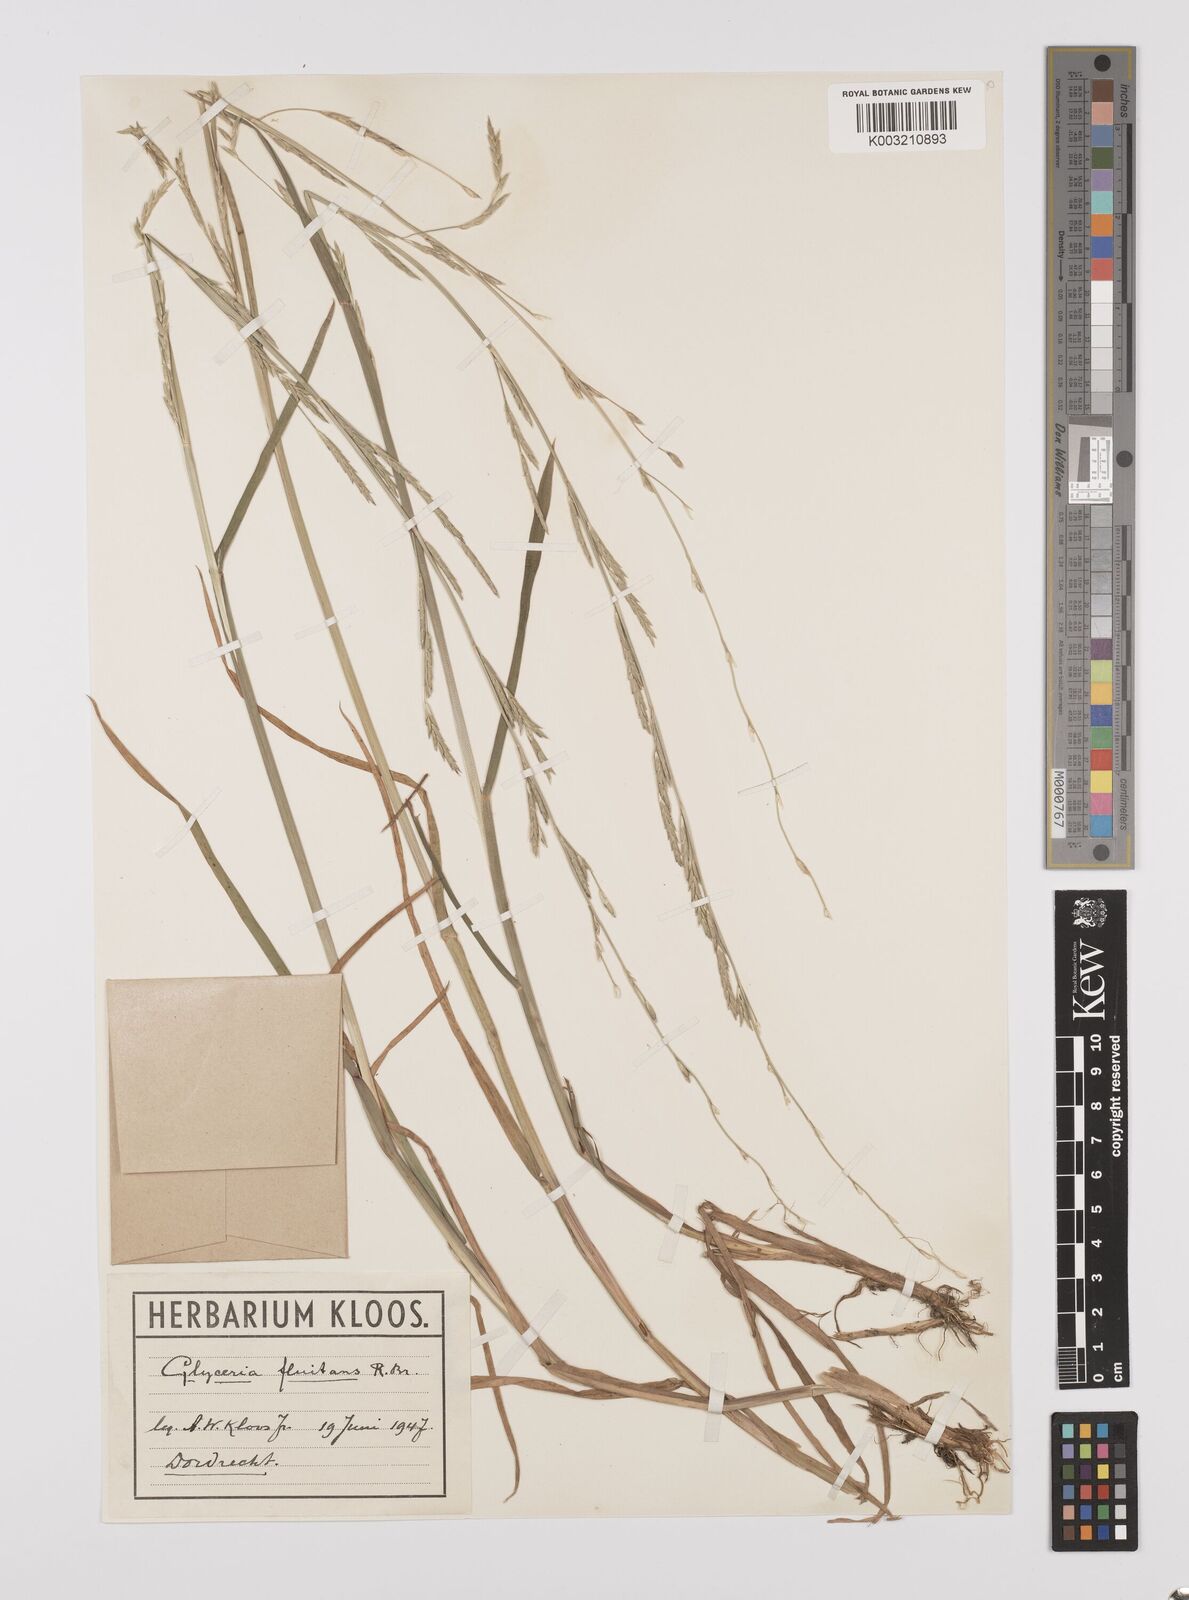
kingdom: Plantae
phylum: Tracheophyta
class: Liliopsida
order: Poales
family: Poaceae
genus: Glyceria
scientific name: Glyceria fluitans
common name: Floating sweet-grass
